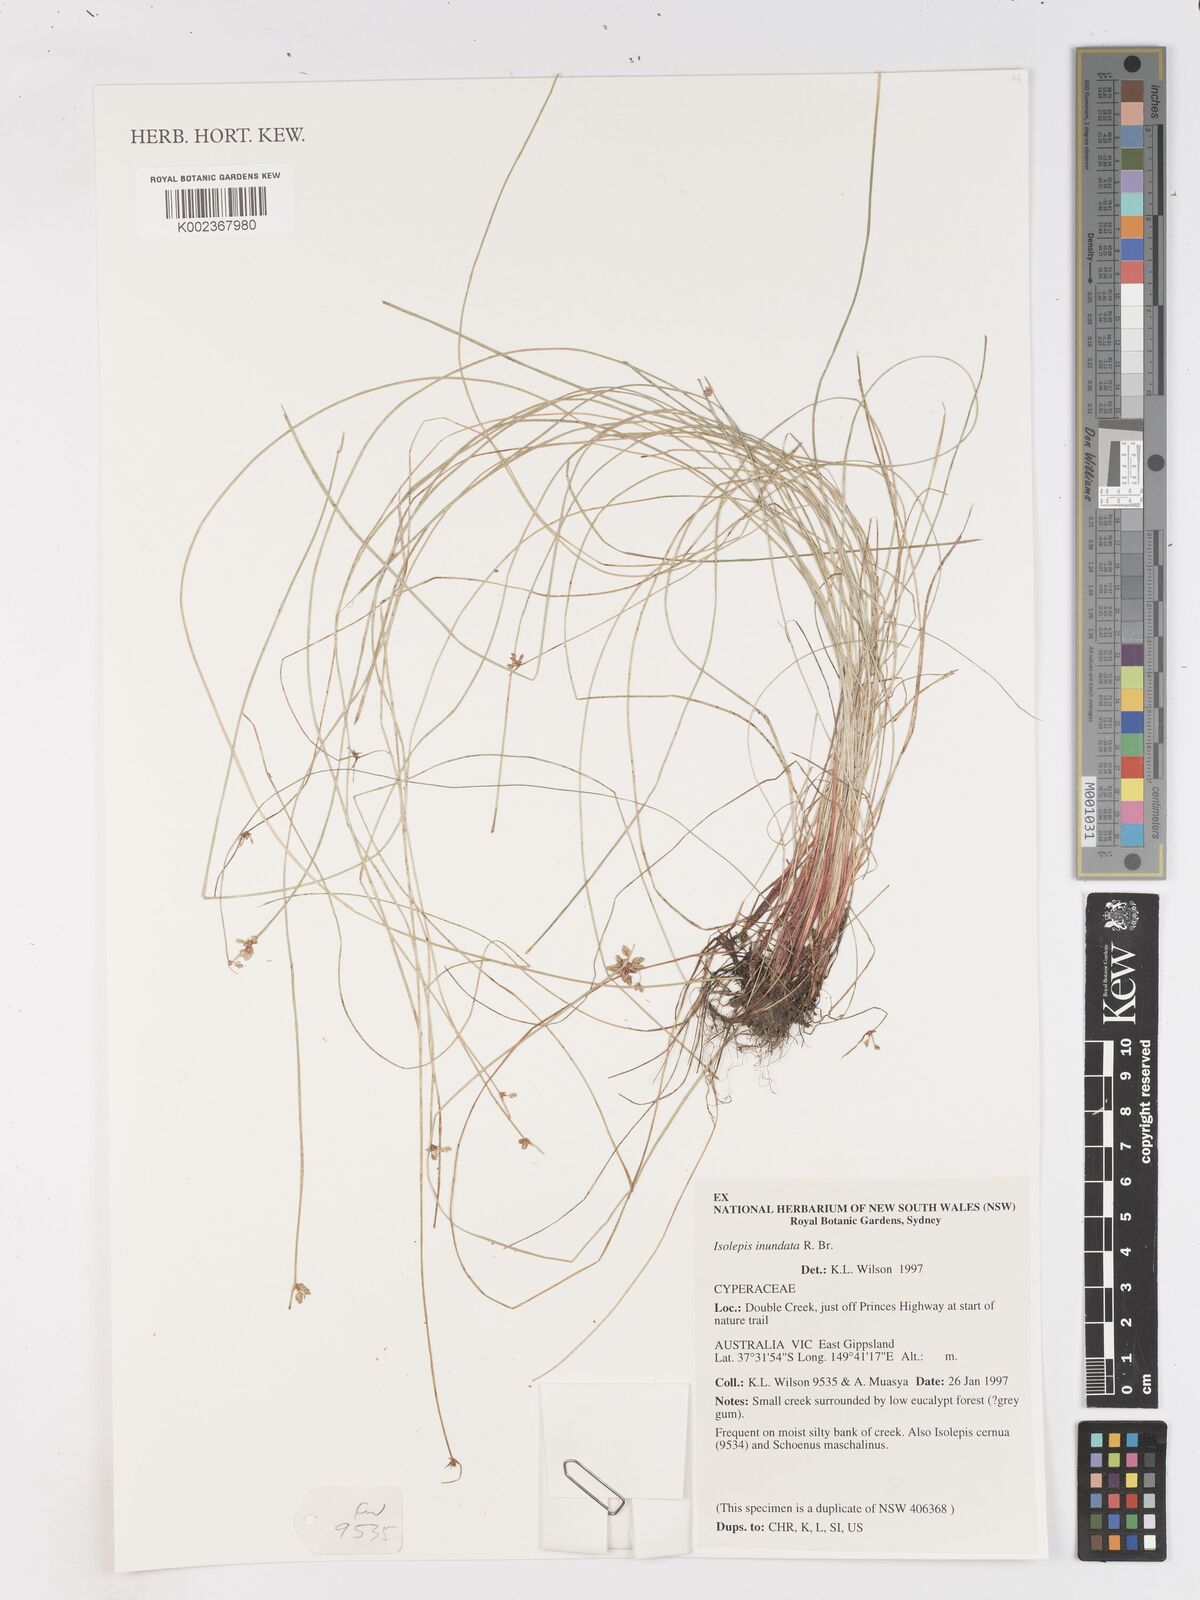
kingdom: Plantae
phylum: Tracheophyta
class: Liliopsida
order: Poales
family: Cyperaceae
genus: Isolepis
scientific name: Isolepis inundata
